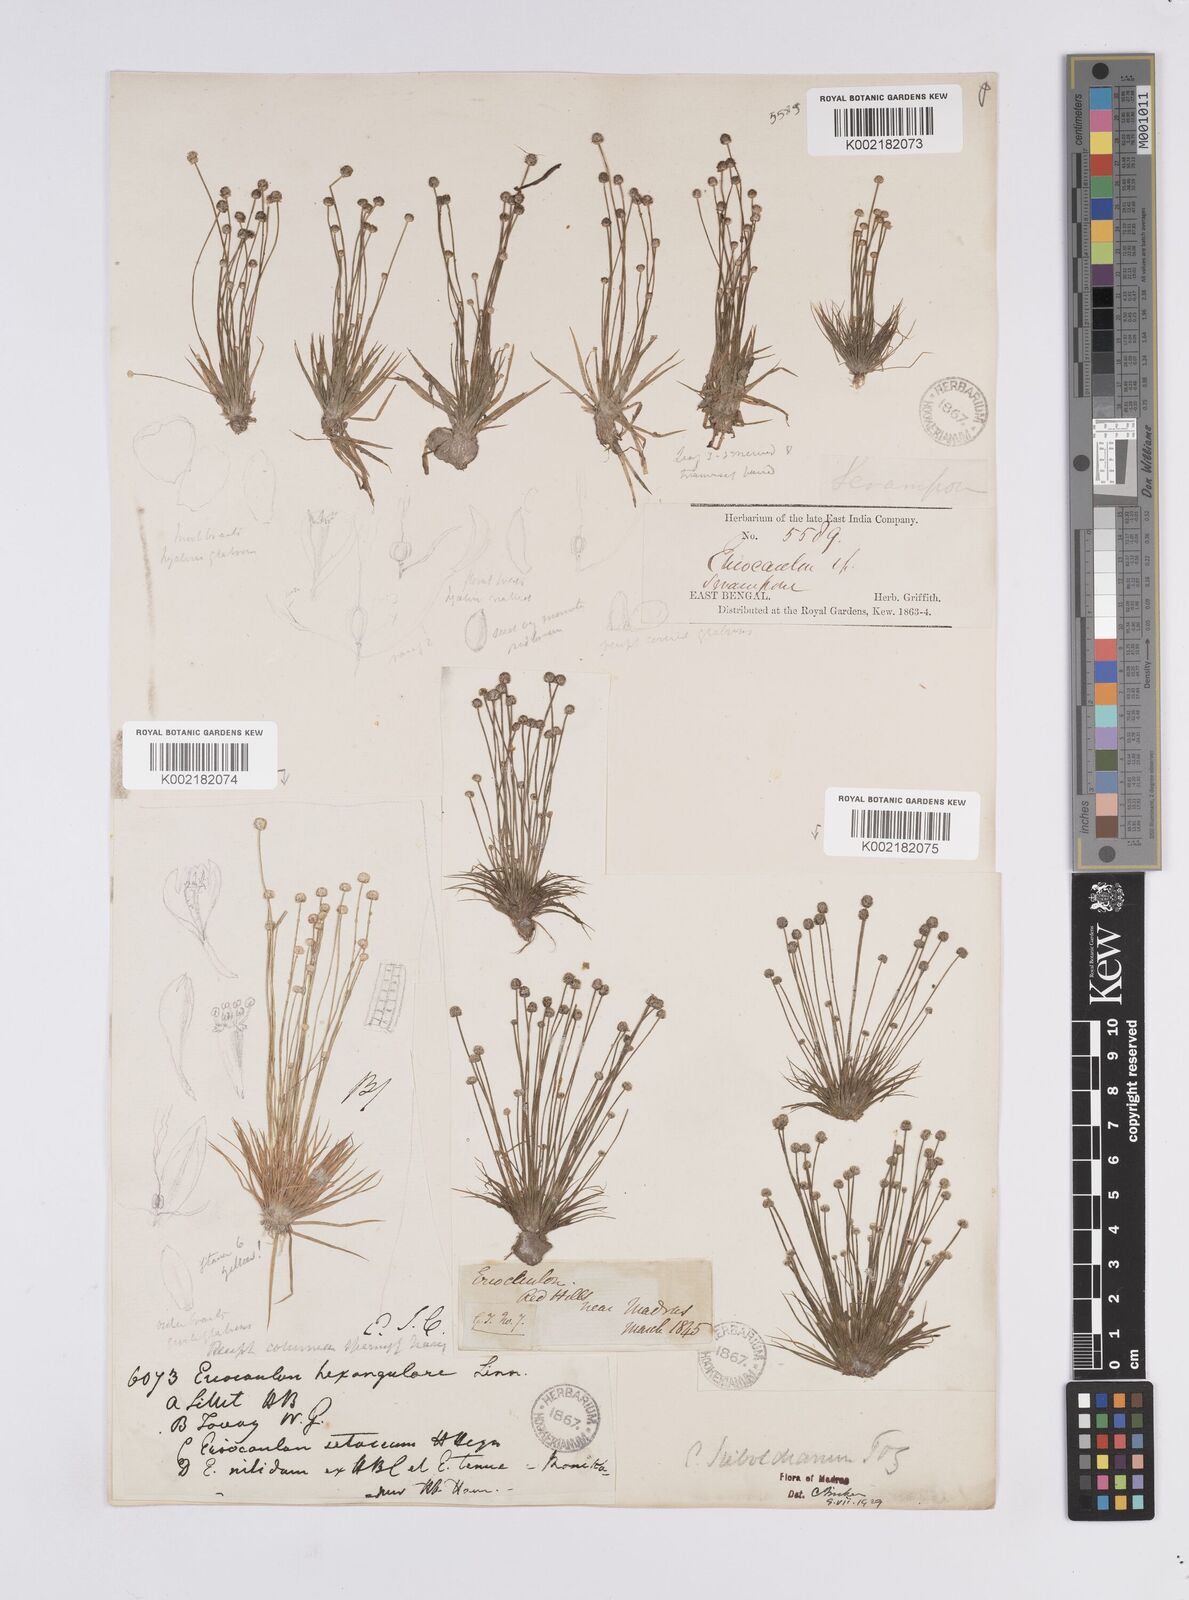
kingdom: Plantae
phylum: Tracheophyta
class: Liliopsida
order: Poales
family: Eriocaulaceae
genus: Eriocaulon
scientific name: Eriocaulon cinereum
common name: Ashy pipewort
